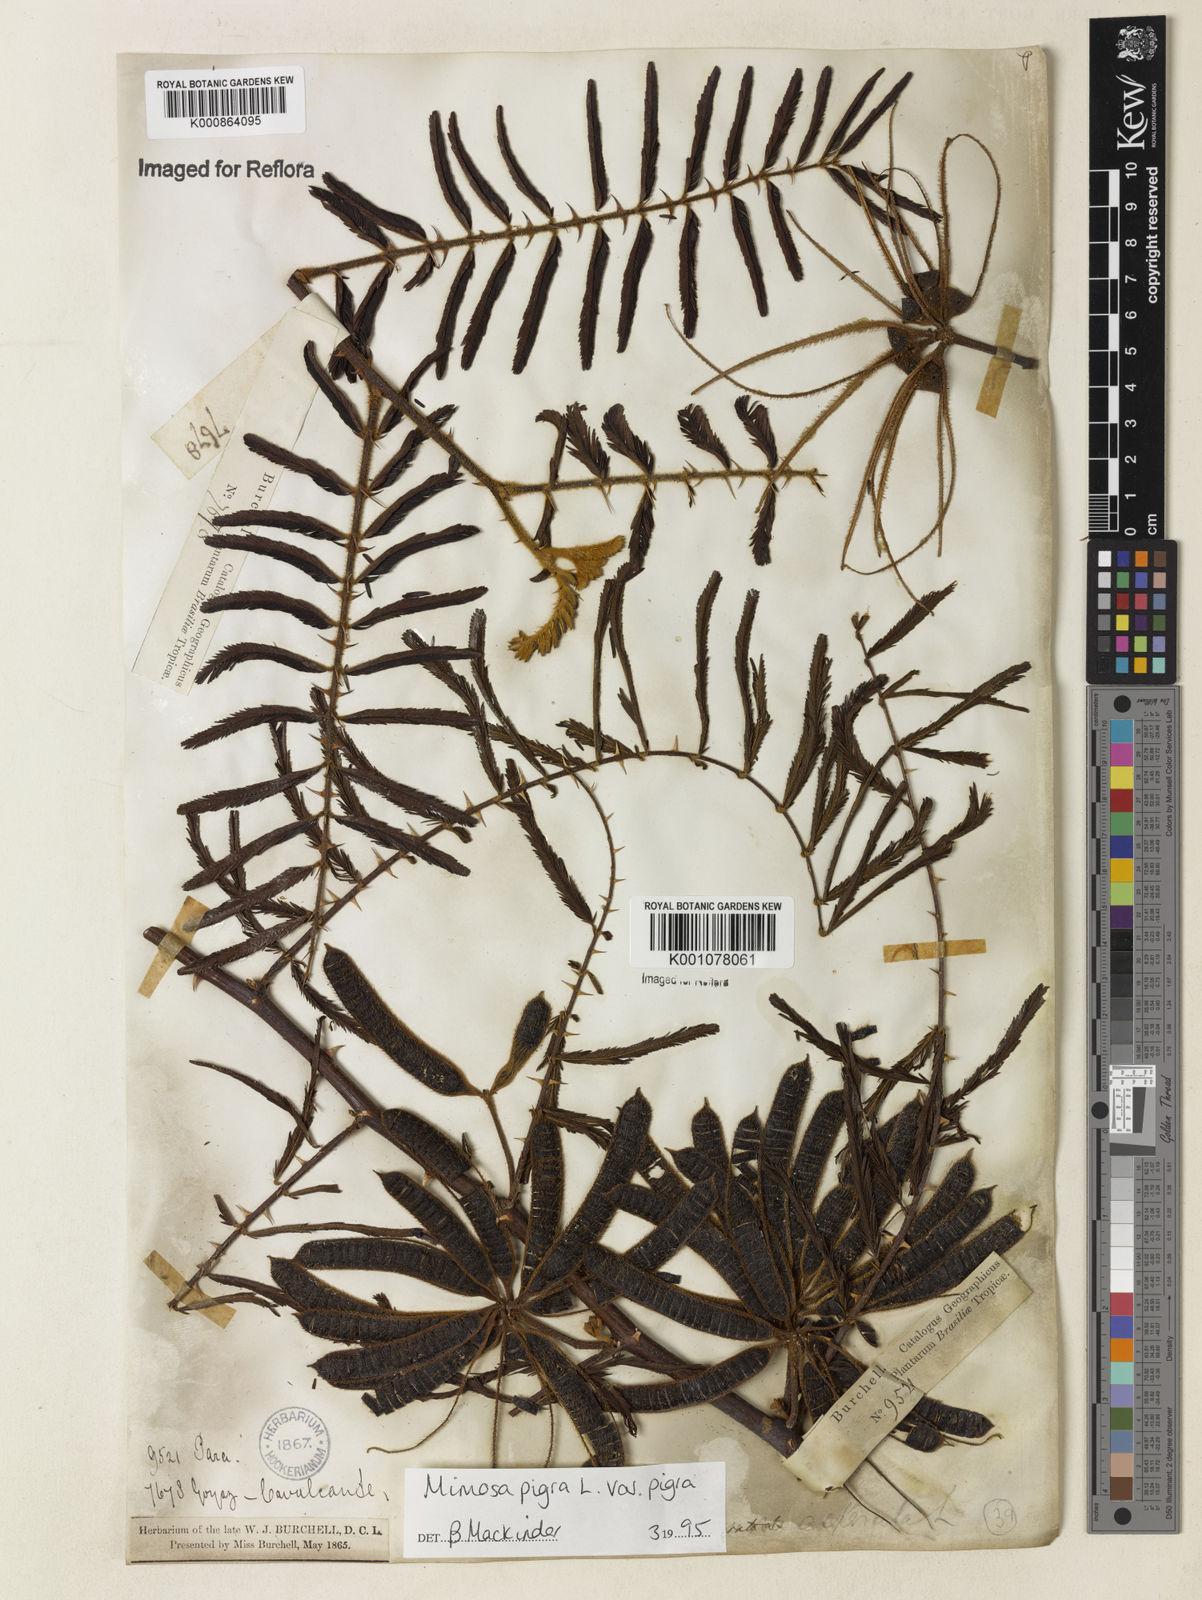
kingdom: Plantae
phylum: Tracheophyta
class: Magnoliopsida
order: Fabales
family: Fabaceae
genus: Mimosa
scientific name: Mimosa pigra
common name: Black mimosa
